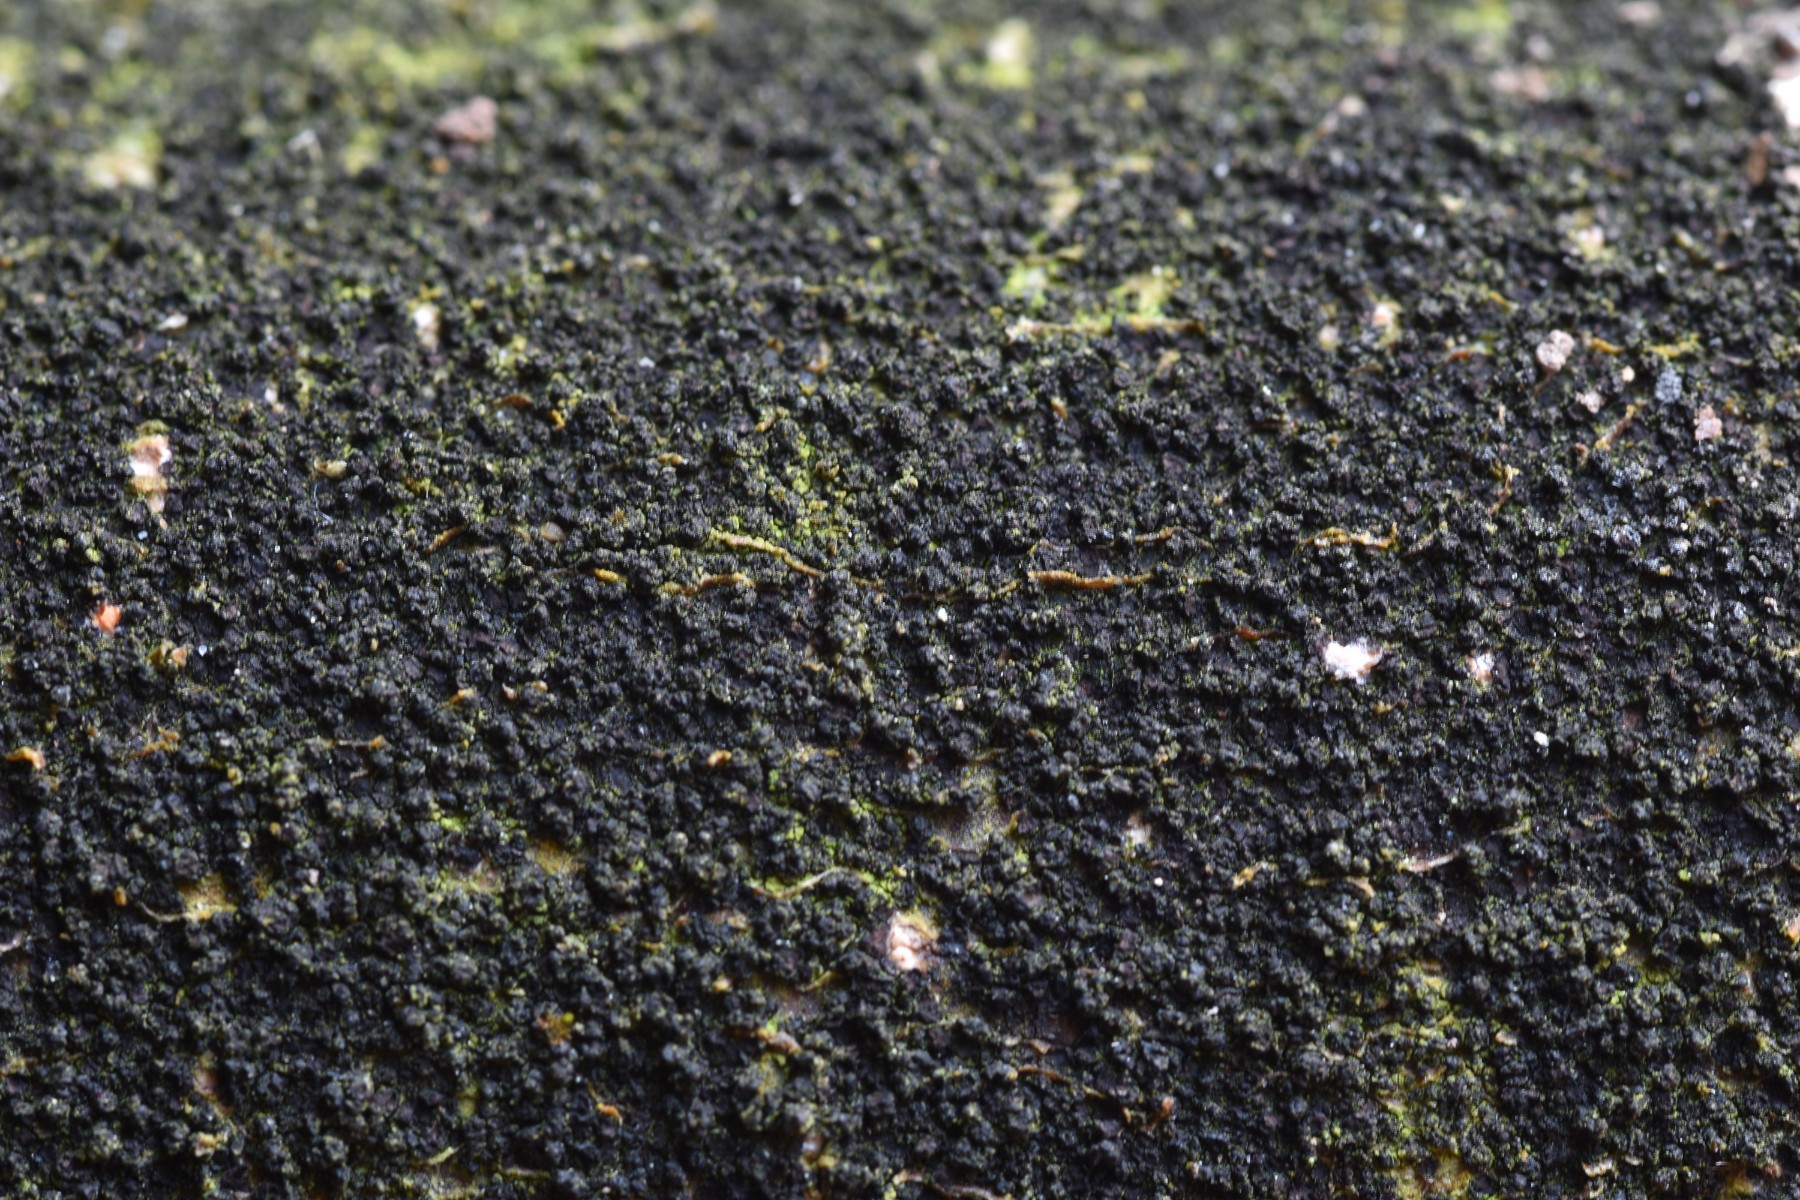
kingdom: Fungi
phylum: Ascomycota
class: Leotiomycetes
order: Rhytismatales
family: Ascodichaenaceae
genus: Ascodichaena
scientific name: Ascodichaena rugosa
